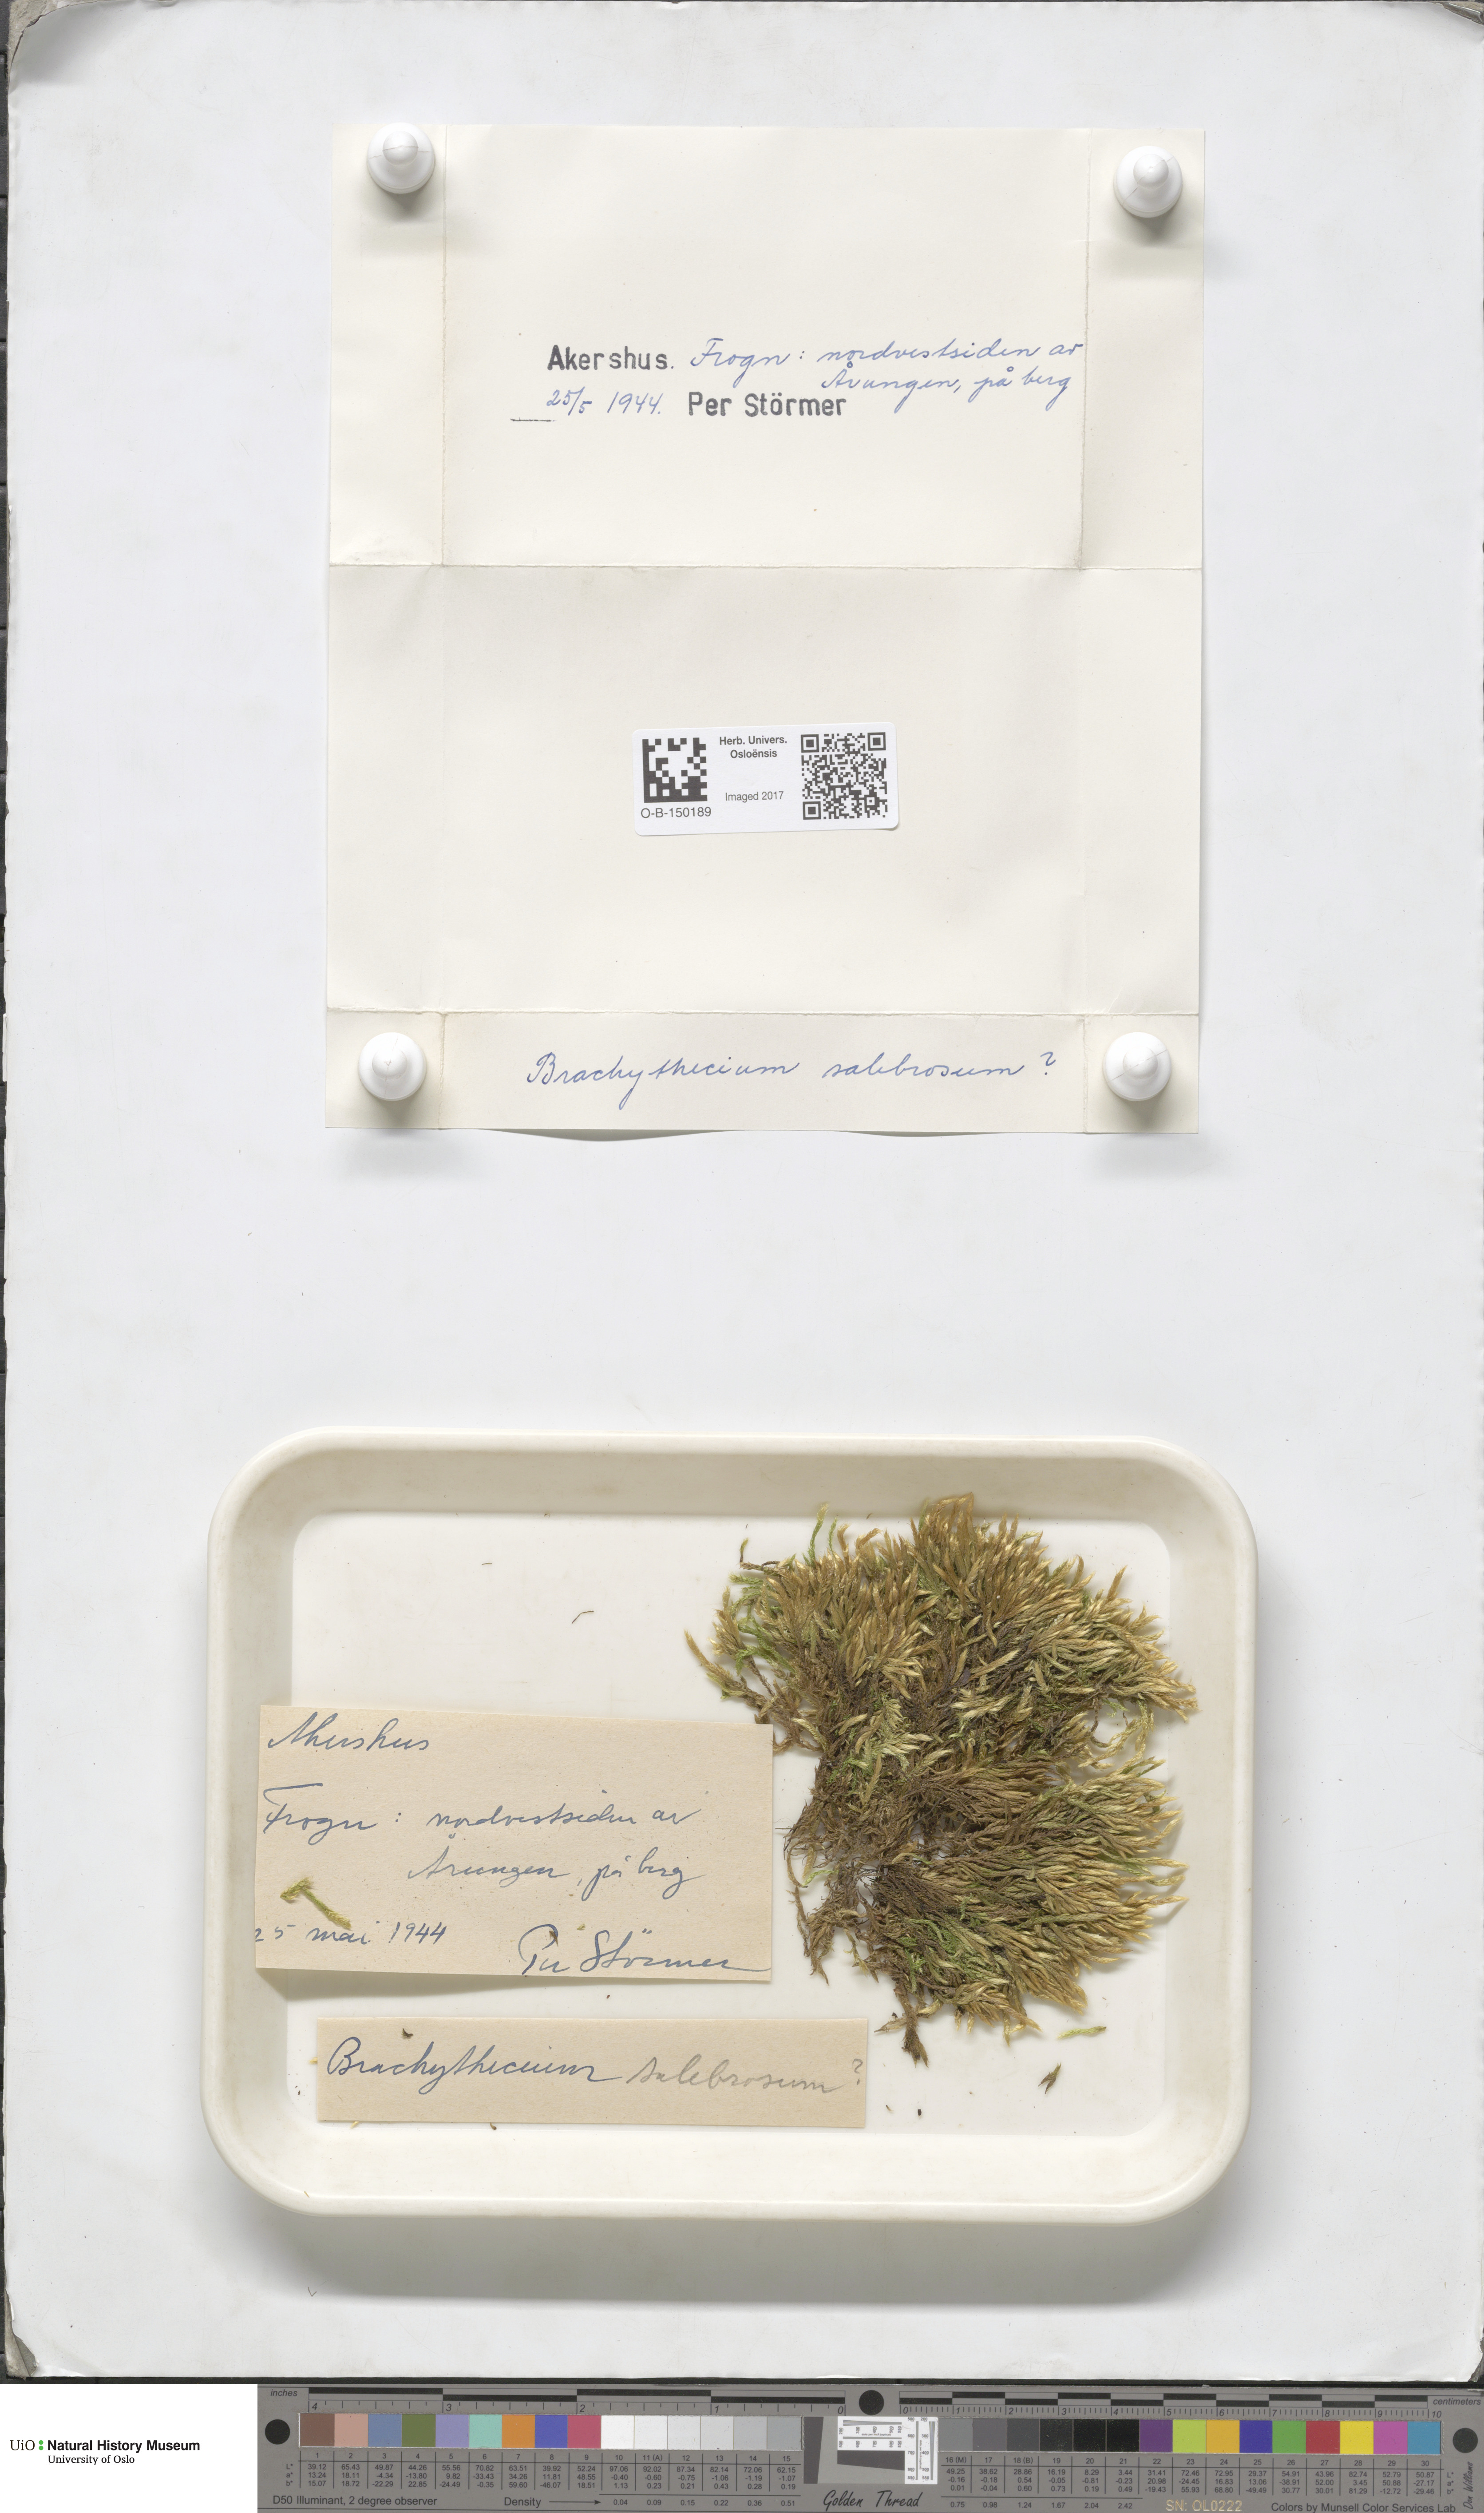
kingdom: Plantae
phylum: Bryophyta
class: Bryopsida
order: Hypnales
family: Brachytheciaceae
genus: Brachythecium
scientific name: Brachythecium salebrosum
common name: Smooth-stalk feather-moss
